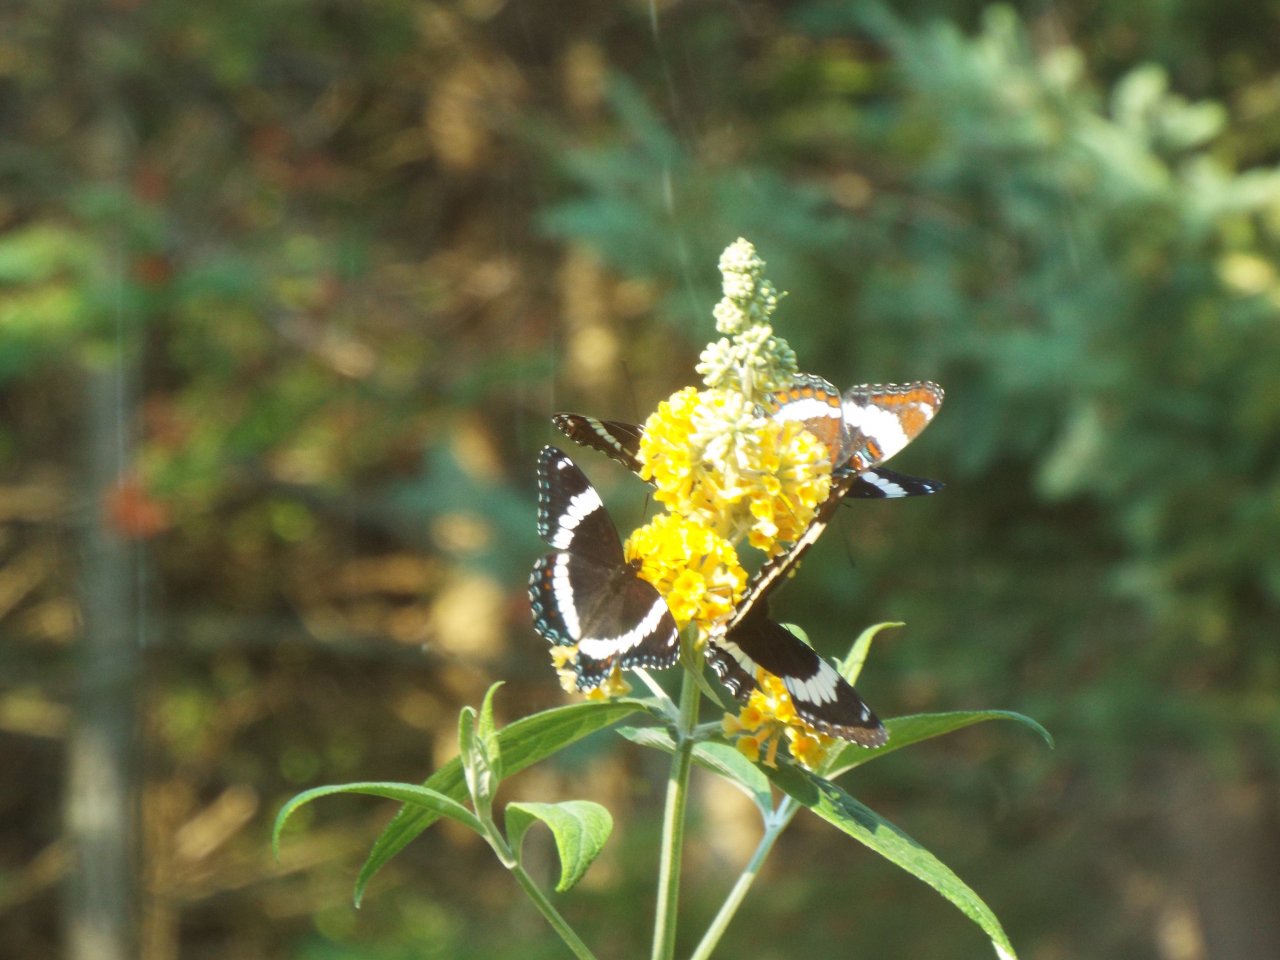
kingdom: Animalia
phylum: Arthropoda
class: Insecta
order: Lepidoptera
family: Nymphalidae
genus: Limenitis
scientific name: Limenitis arthemis
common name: Red-spotted Admiral
